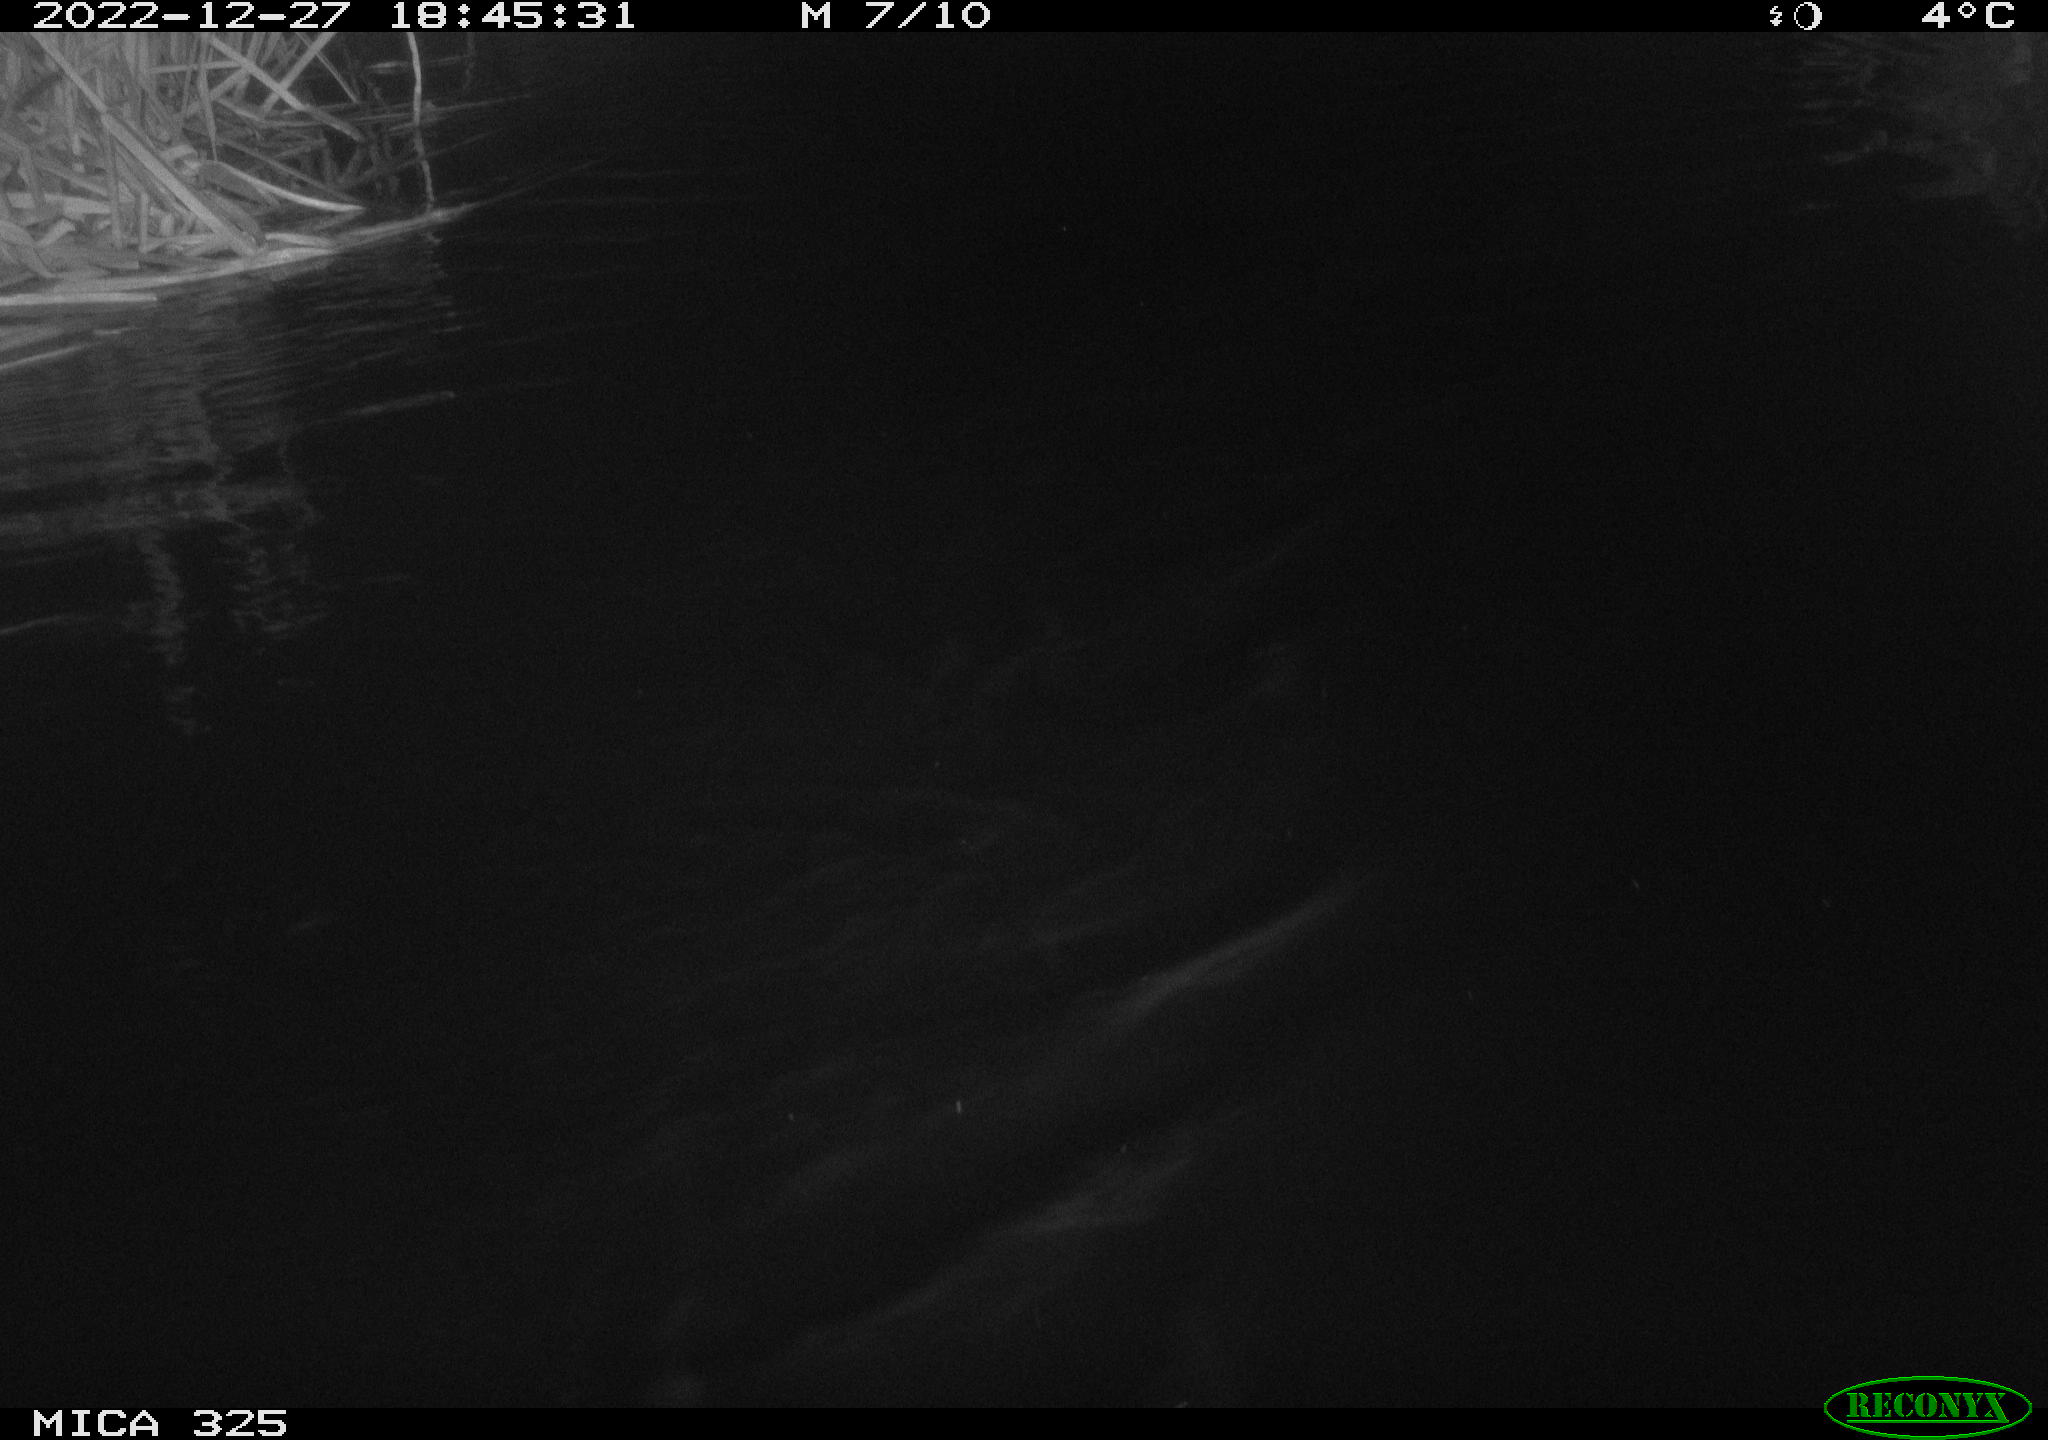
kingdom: Animalia
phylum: Chordata
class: Mammalia
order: Rodentia
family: Cricetidae
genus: Ondatra
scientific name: Ondatra zibethicus
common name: Muskrat
